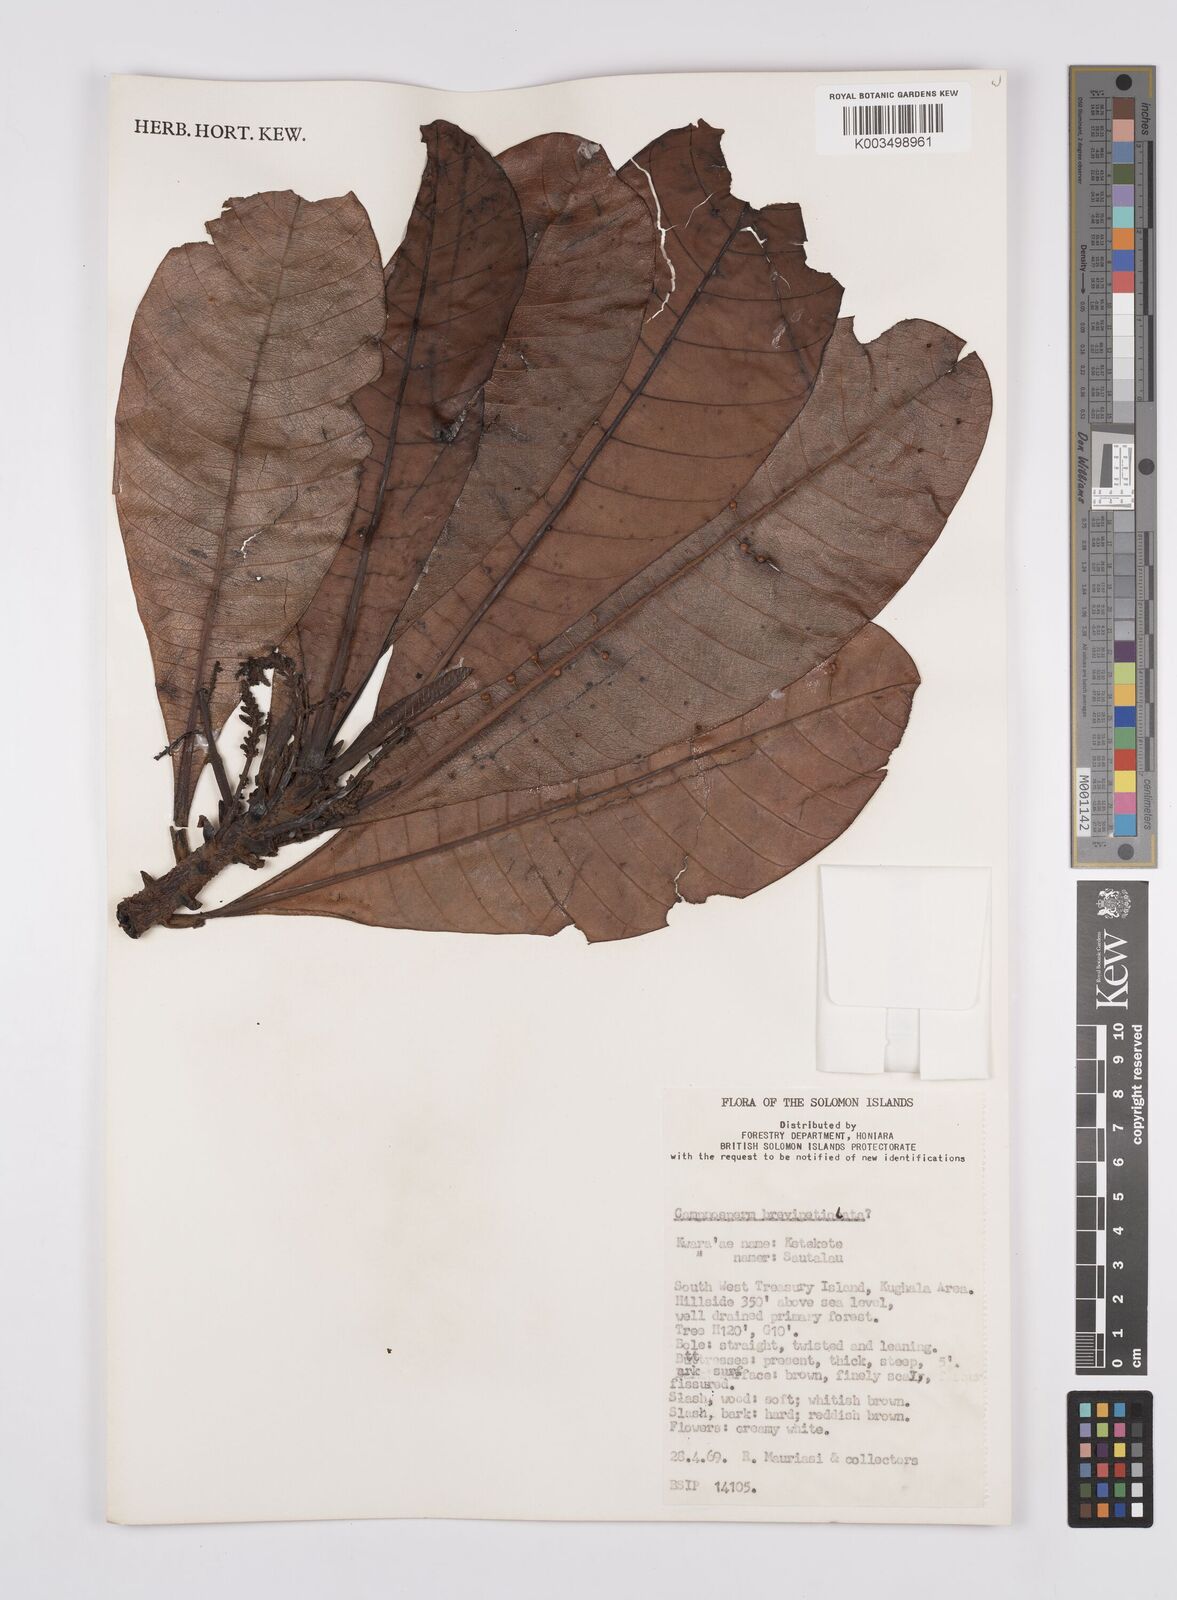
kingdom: Plantae
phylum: Tracheophyta
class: Magnoliopsida
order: Sapindales
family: Anacardiaceae
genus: Campnosperma
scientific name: Campnosperma brevipetiolatum
